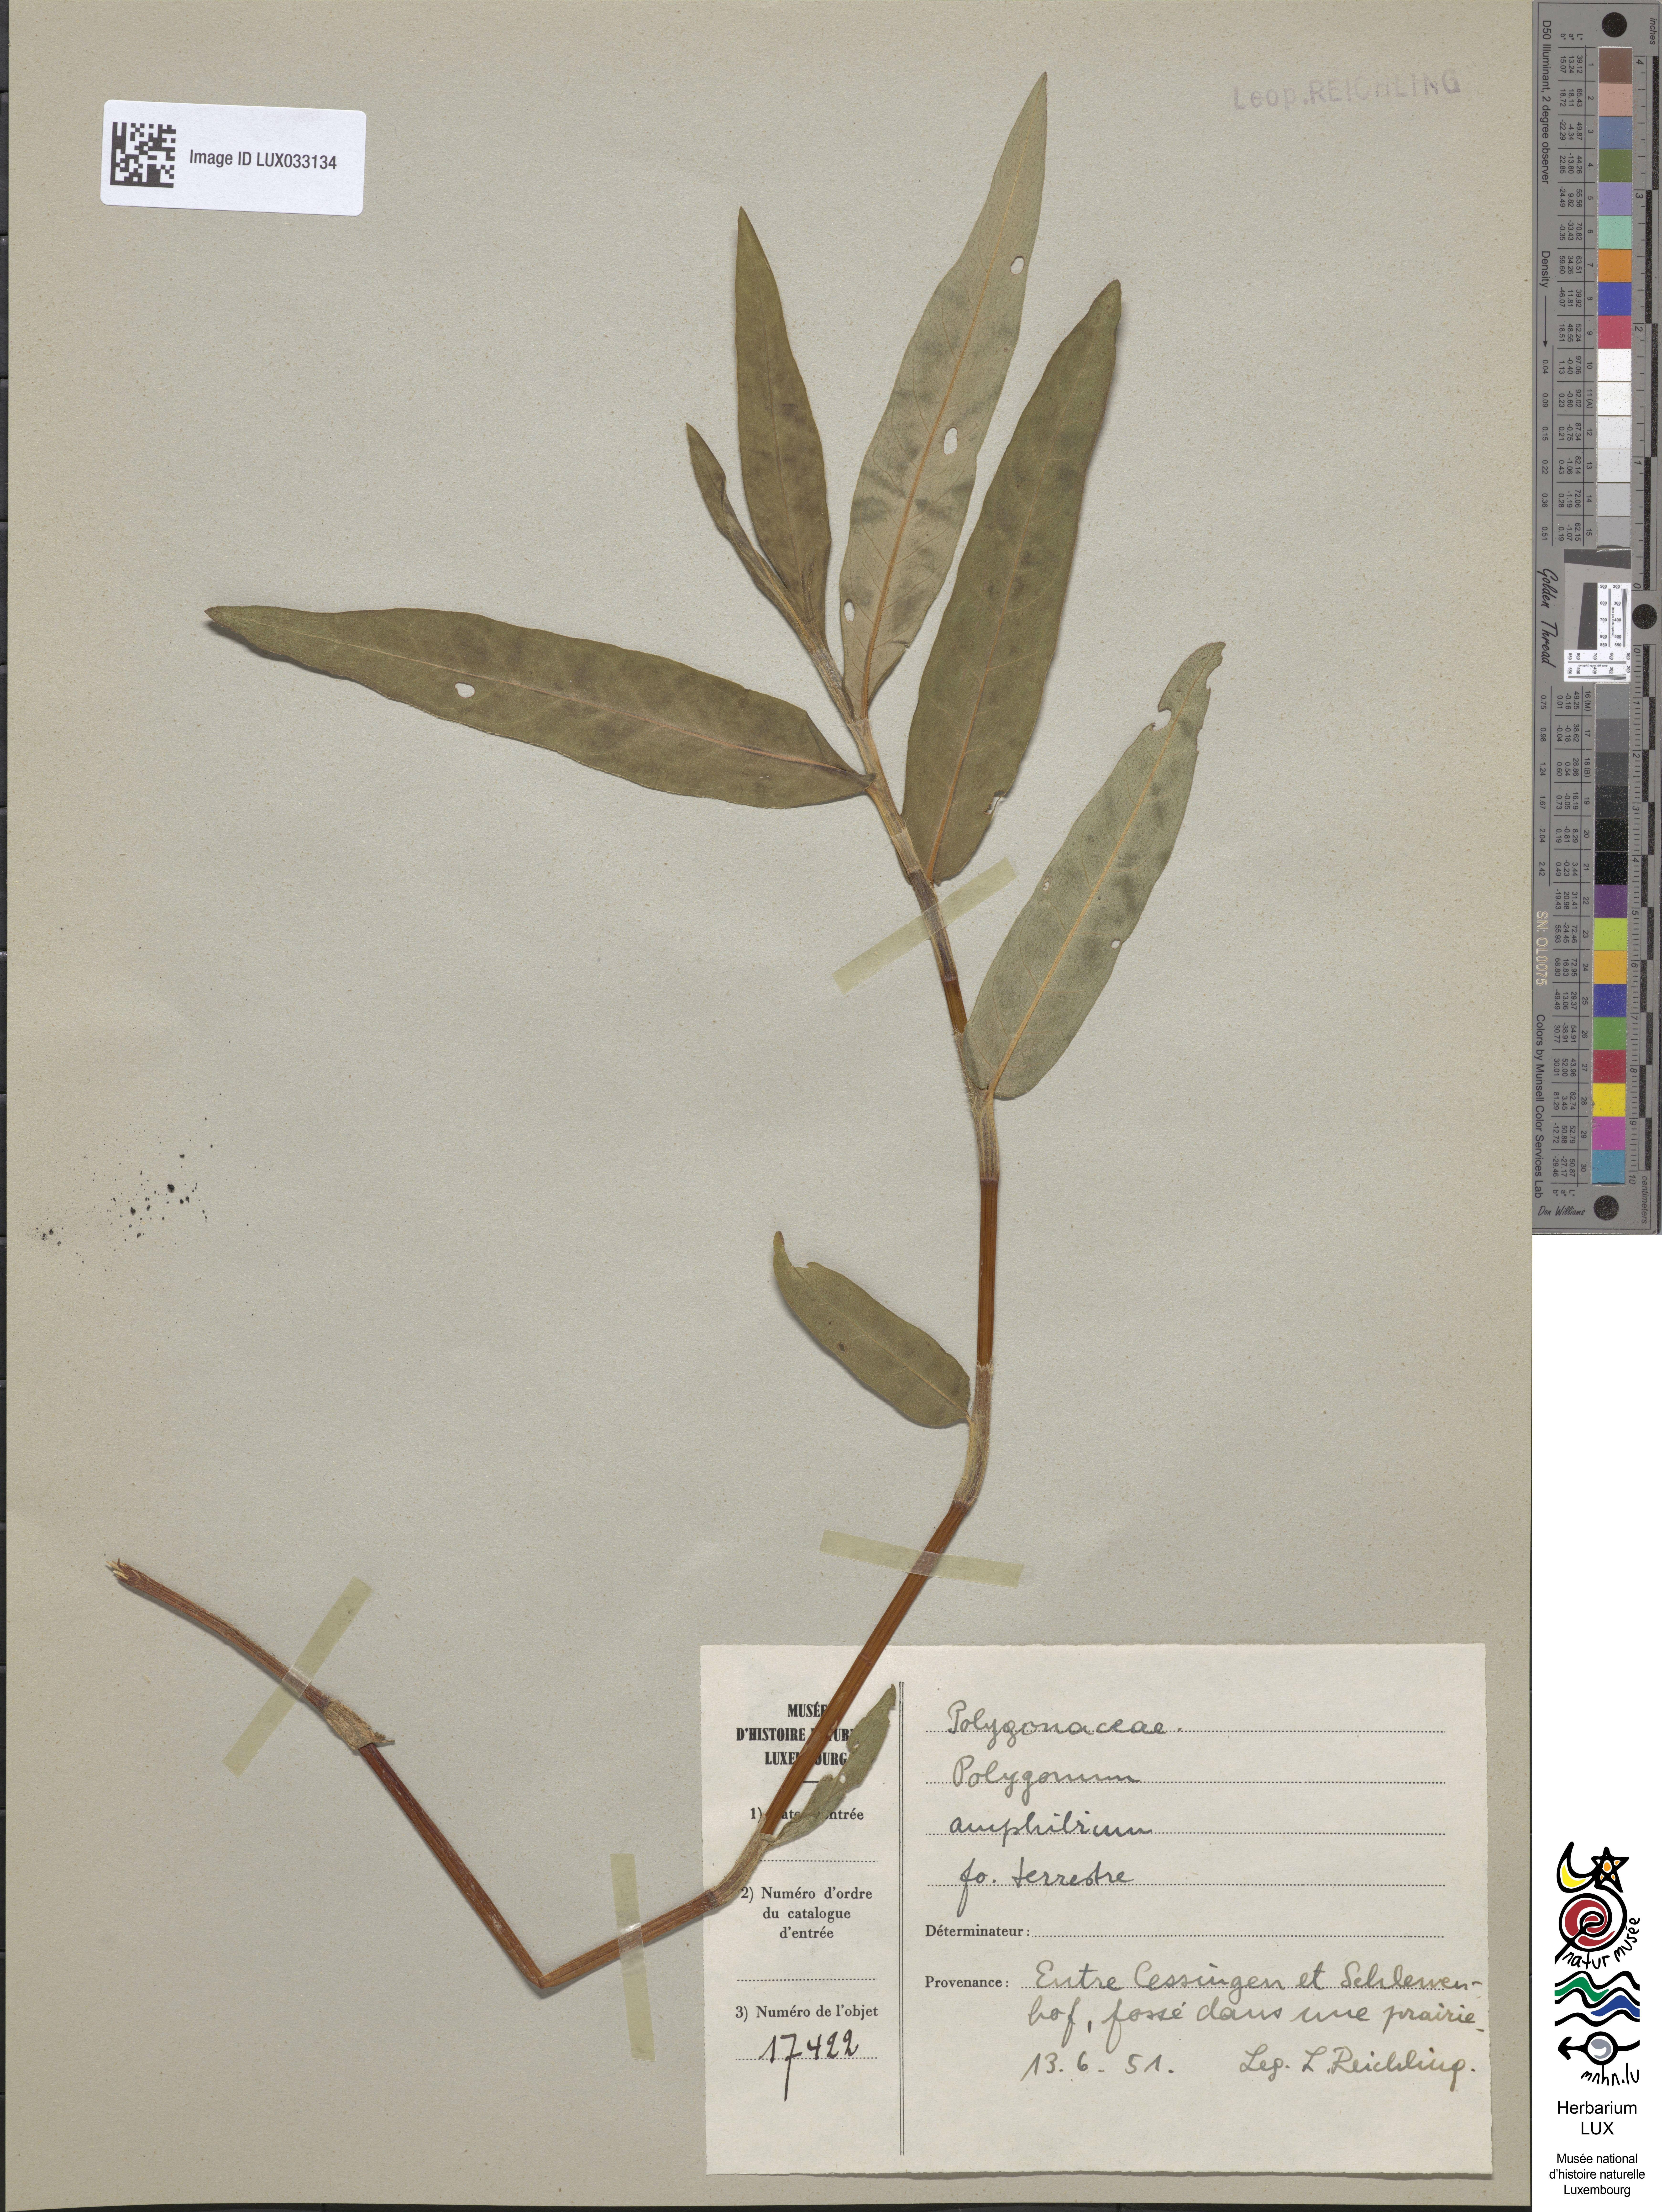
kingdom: Plantae
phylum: Tracheophyta
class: Magnoliopsida
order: Caryophyllales
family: Polygonaceae
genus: Persicaria
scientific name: Persicaria amphibia
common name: Amphibious bistort
